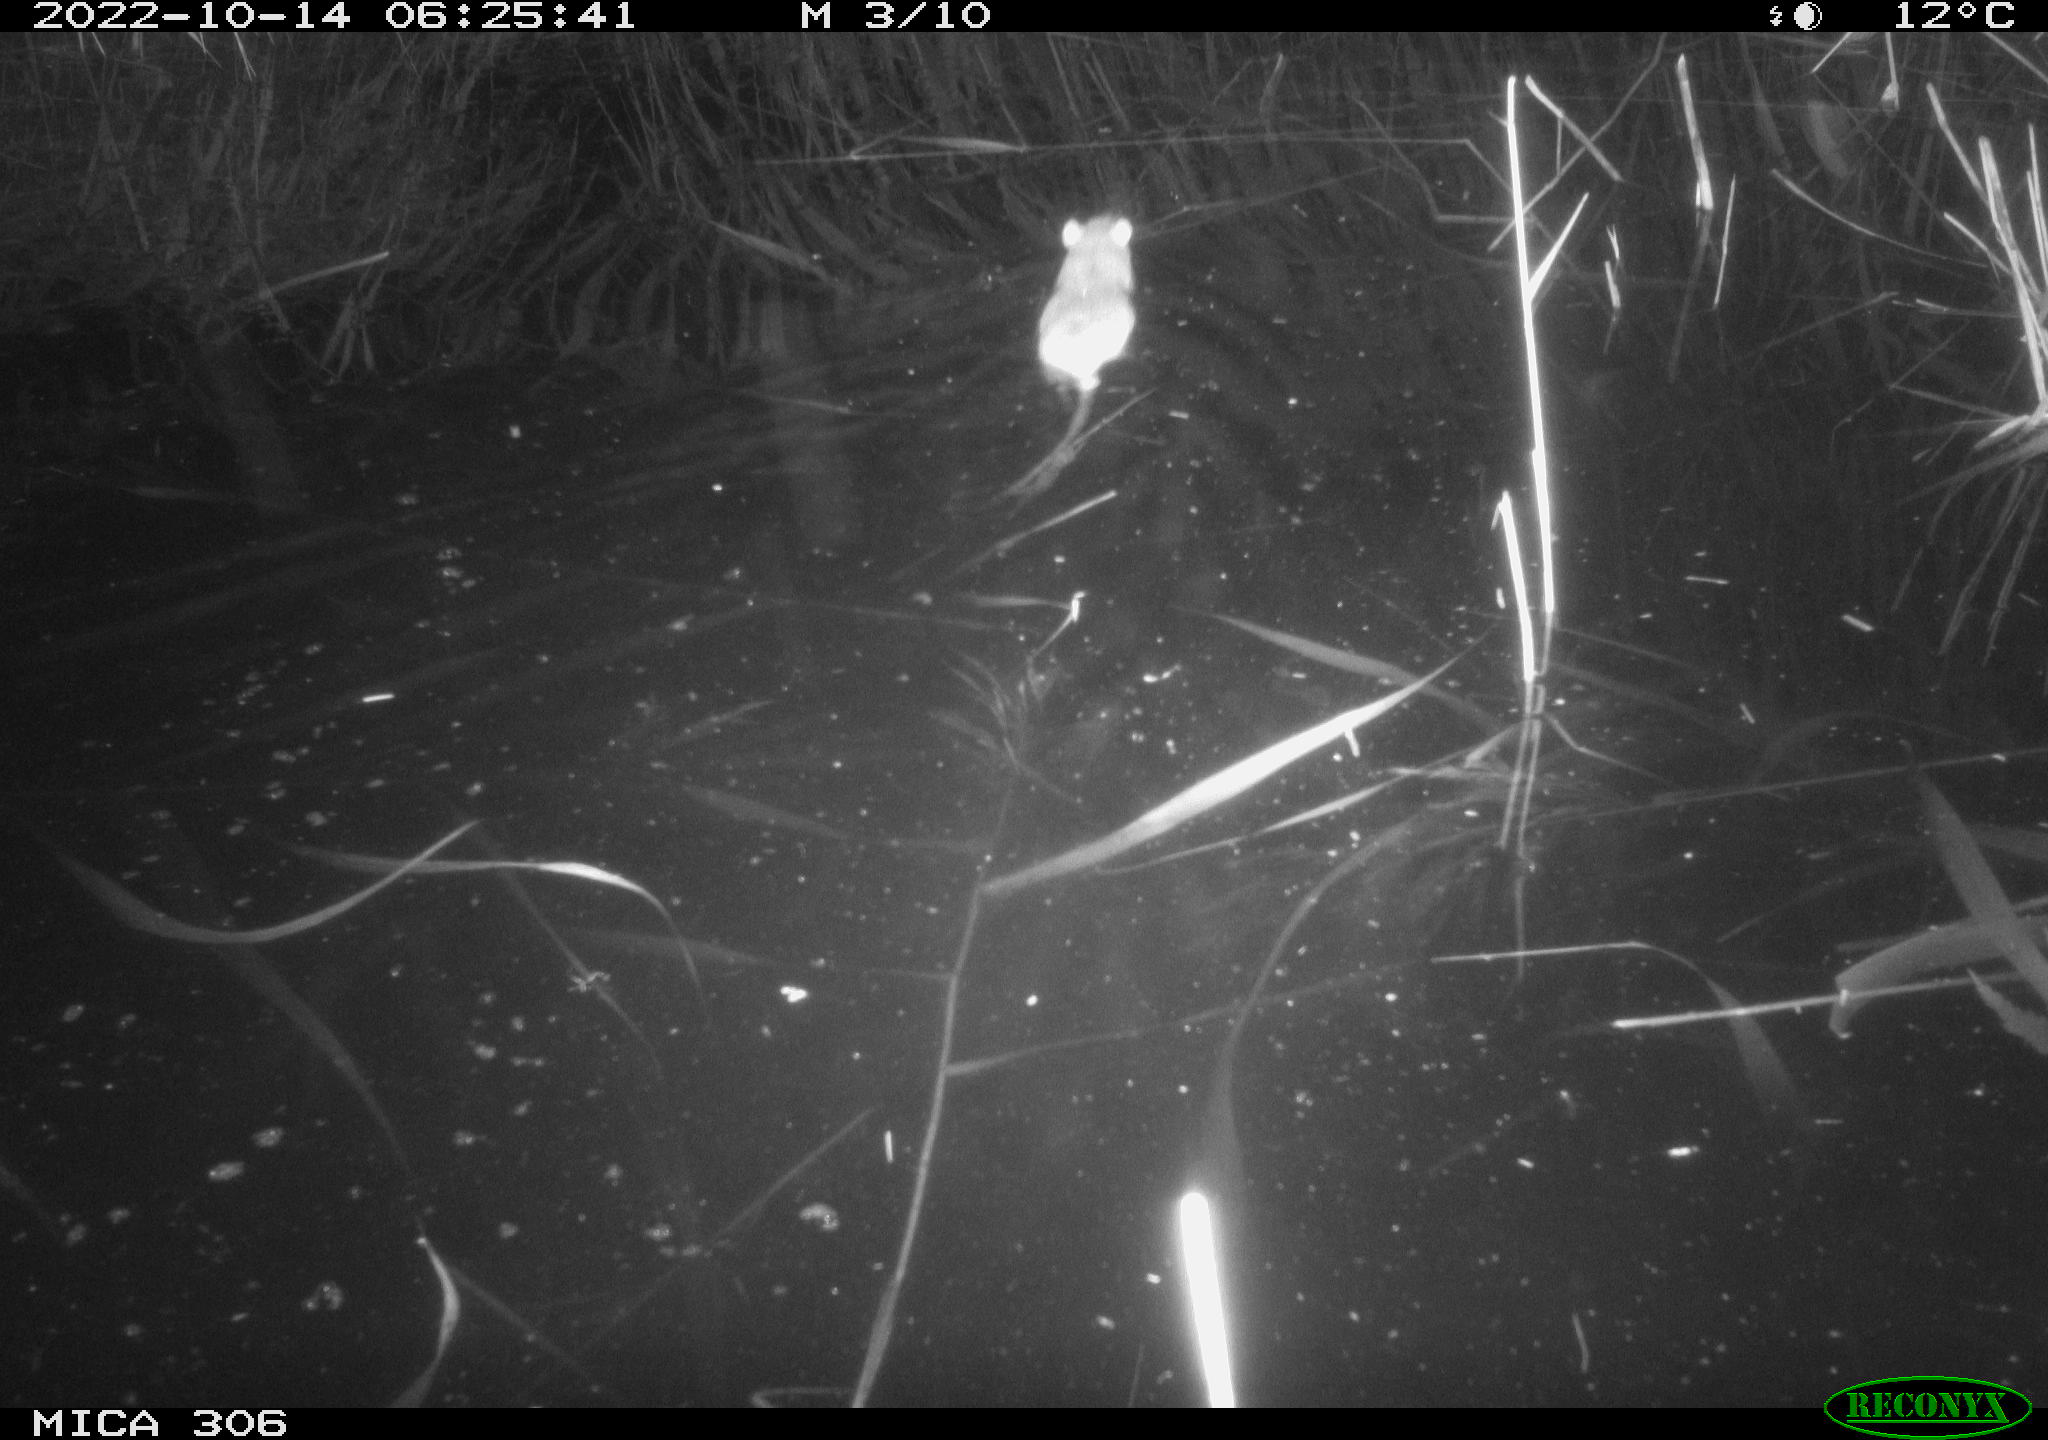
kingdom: Animalia
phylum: Chordata
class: Mammalia
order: Rodentia
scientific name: Rodentia
